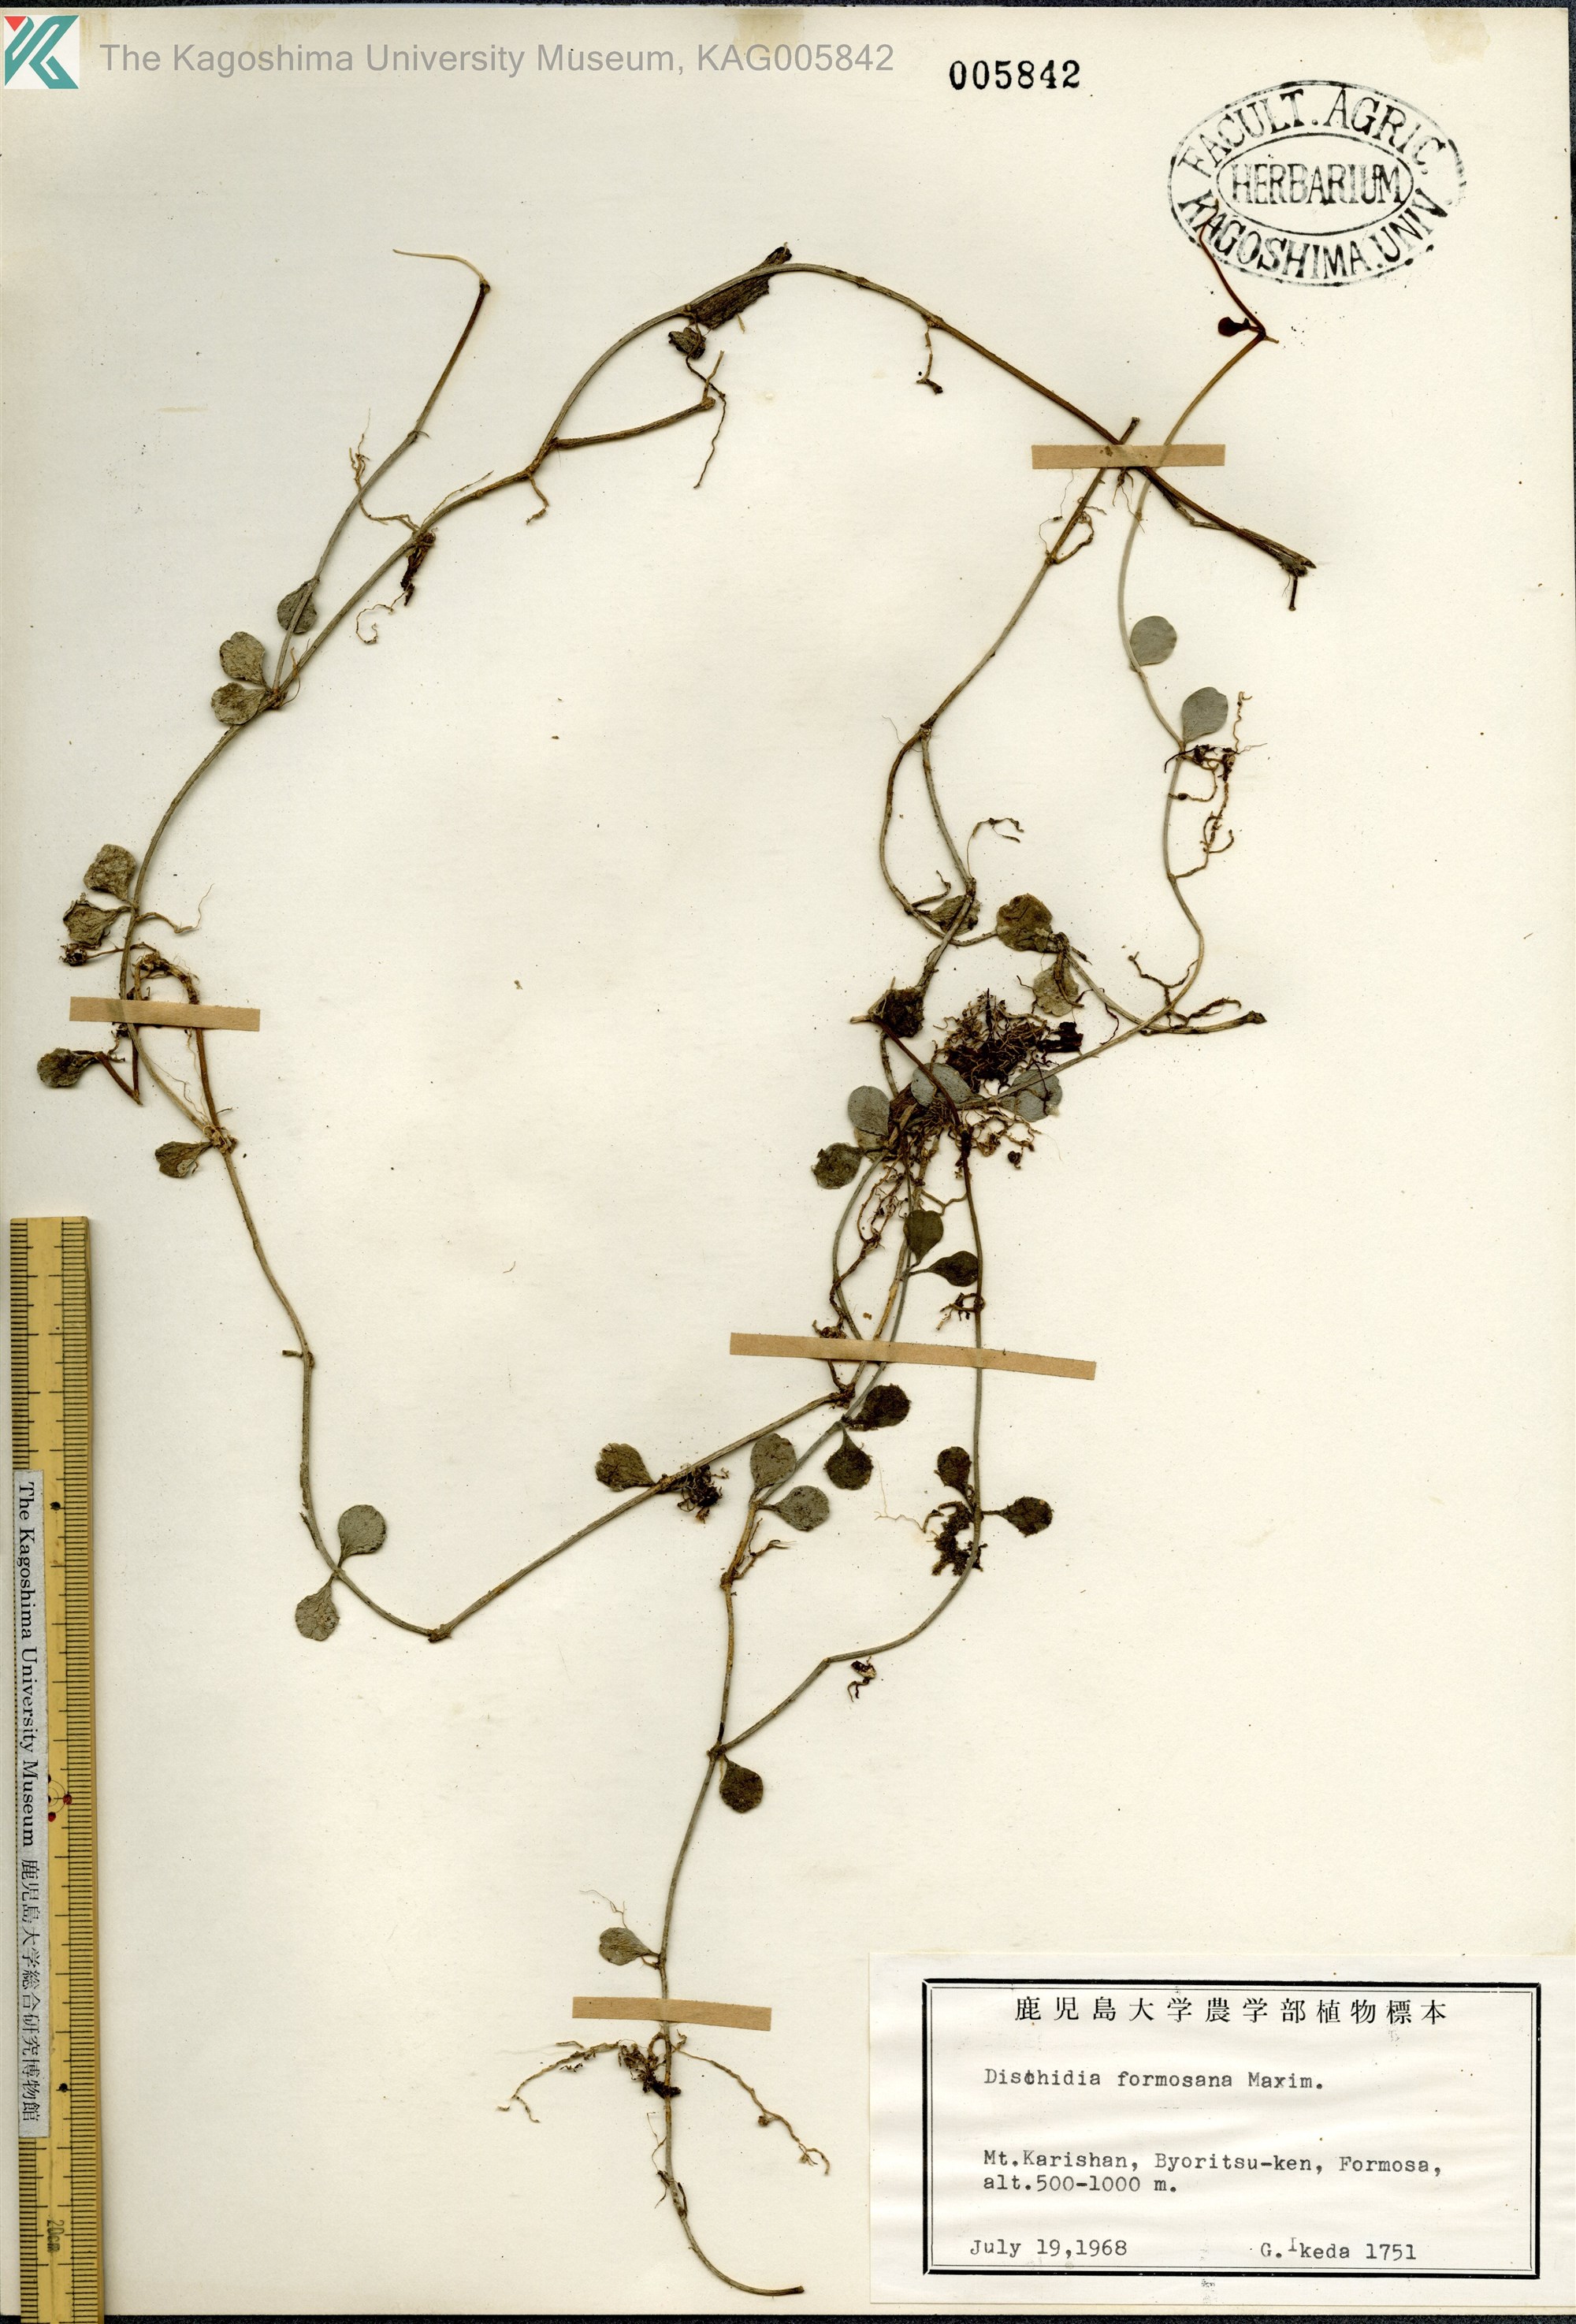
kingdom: Plantae
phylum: Tracheophyta
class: Magnoliopsida
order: Gentianales
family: Apocynaceae
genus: Dischidia
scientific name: Dischidia formosana
